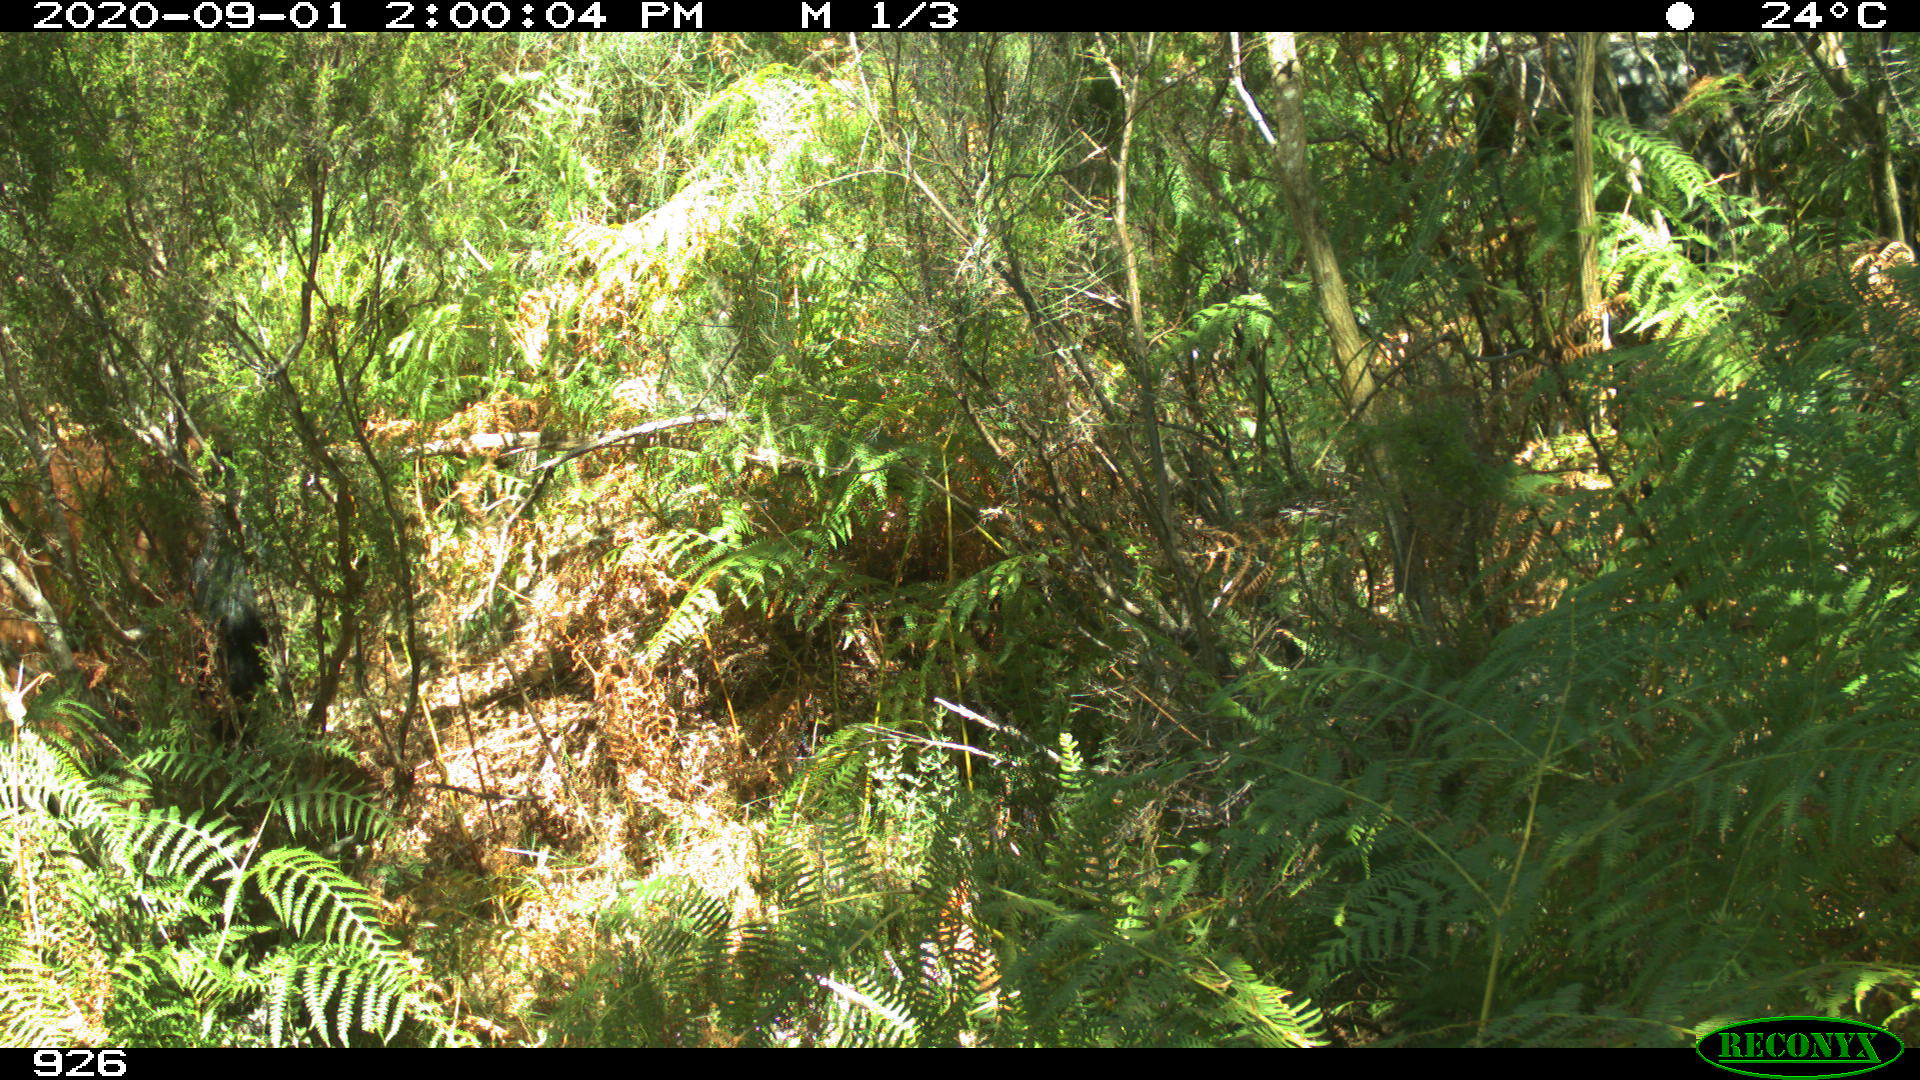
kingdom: Animalia
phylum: Chordata
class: Mammalia
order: Perissodactyla
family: Equidae
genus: Equus
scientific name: Equus caballus
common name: Horse
